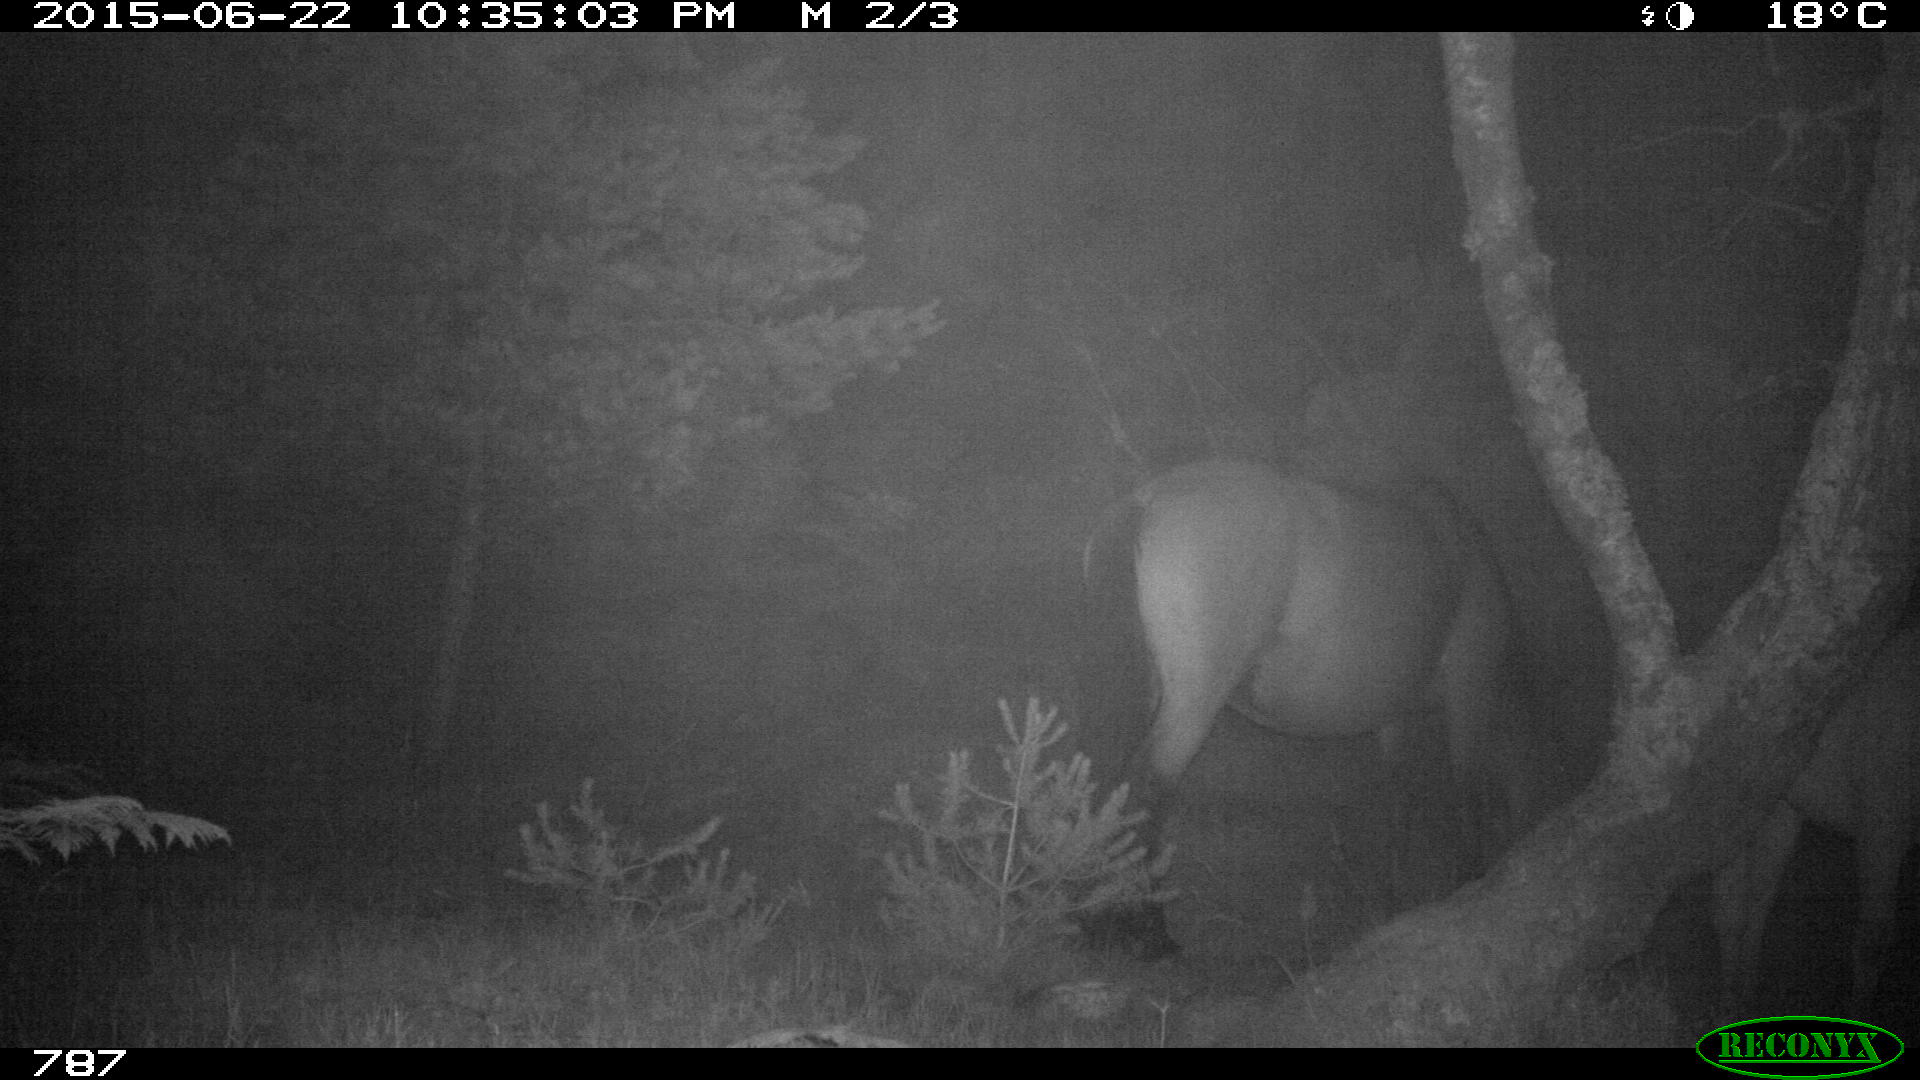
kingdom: Animalia
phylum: Chordata
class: Mammalia
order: Perissodactyla
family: Equidae
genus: Equus
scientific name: Equus caballus
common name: Horse
